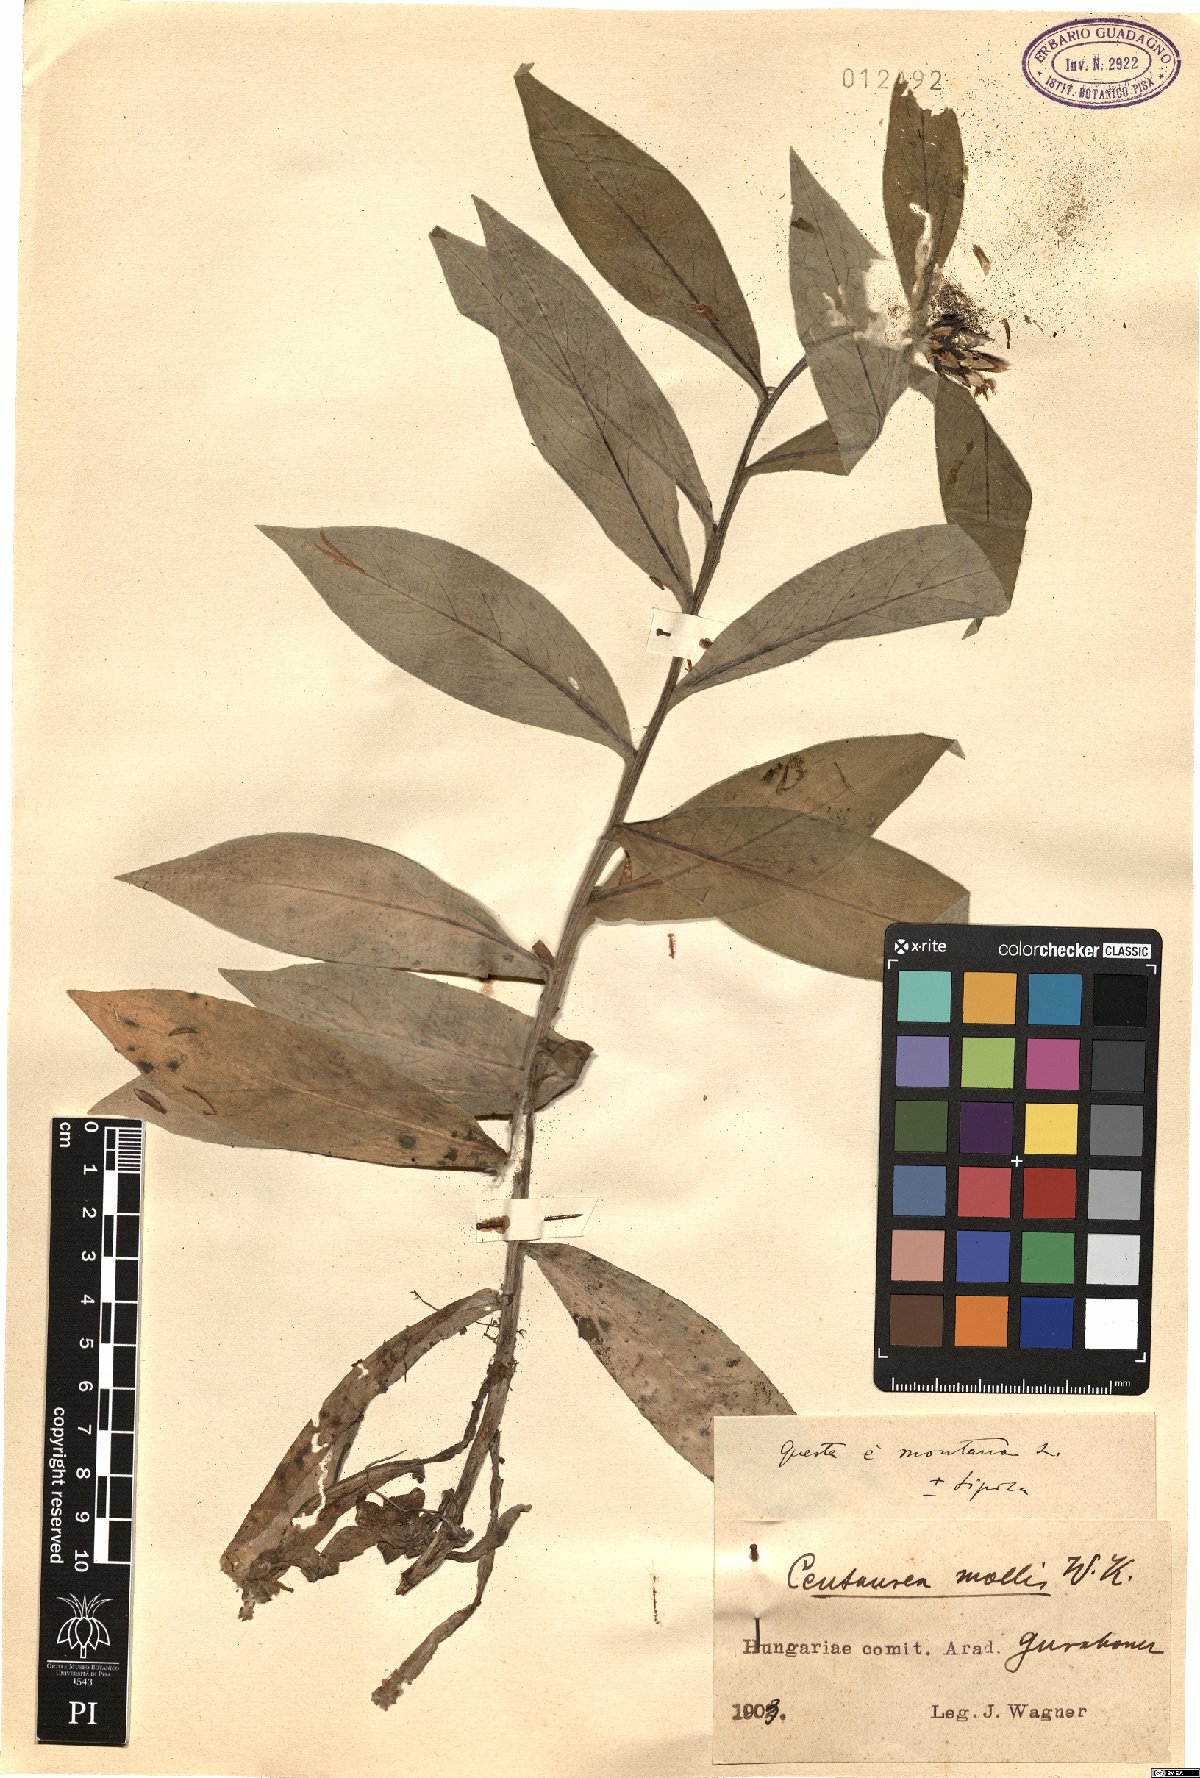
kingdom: Plantae
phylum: Tracheophyta
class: Magnoliopsida
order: Asterales
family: Asteraceae
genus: Centaurea
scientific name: Centaurea triumfettii
